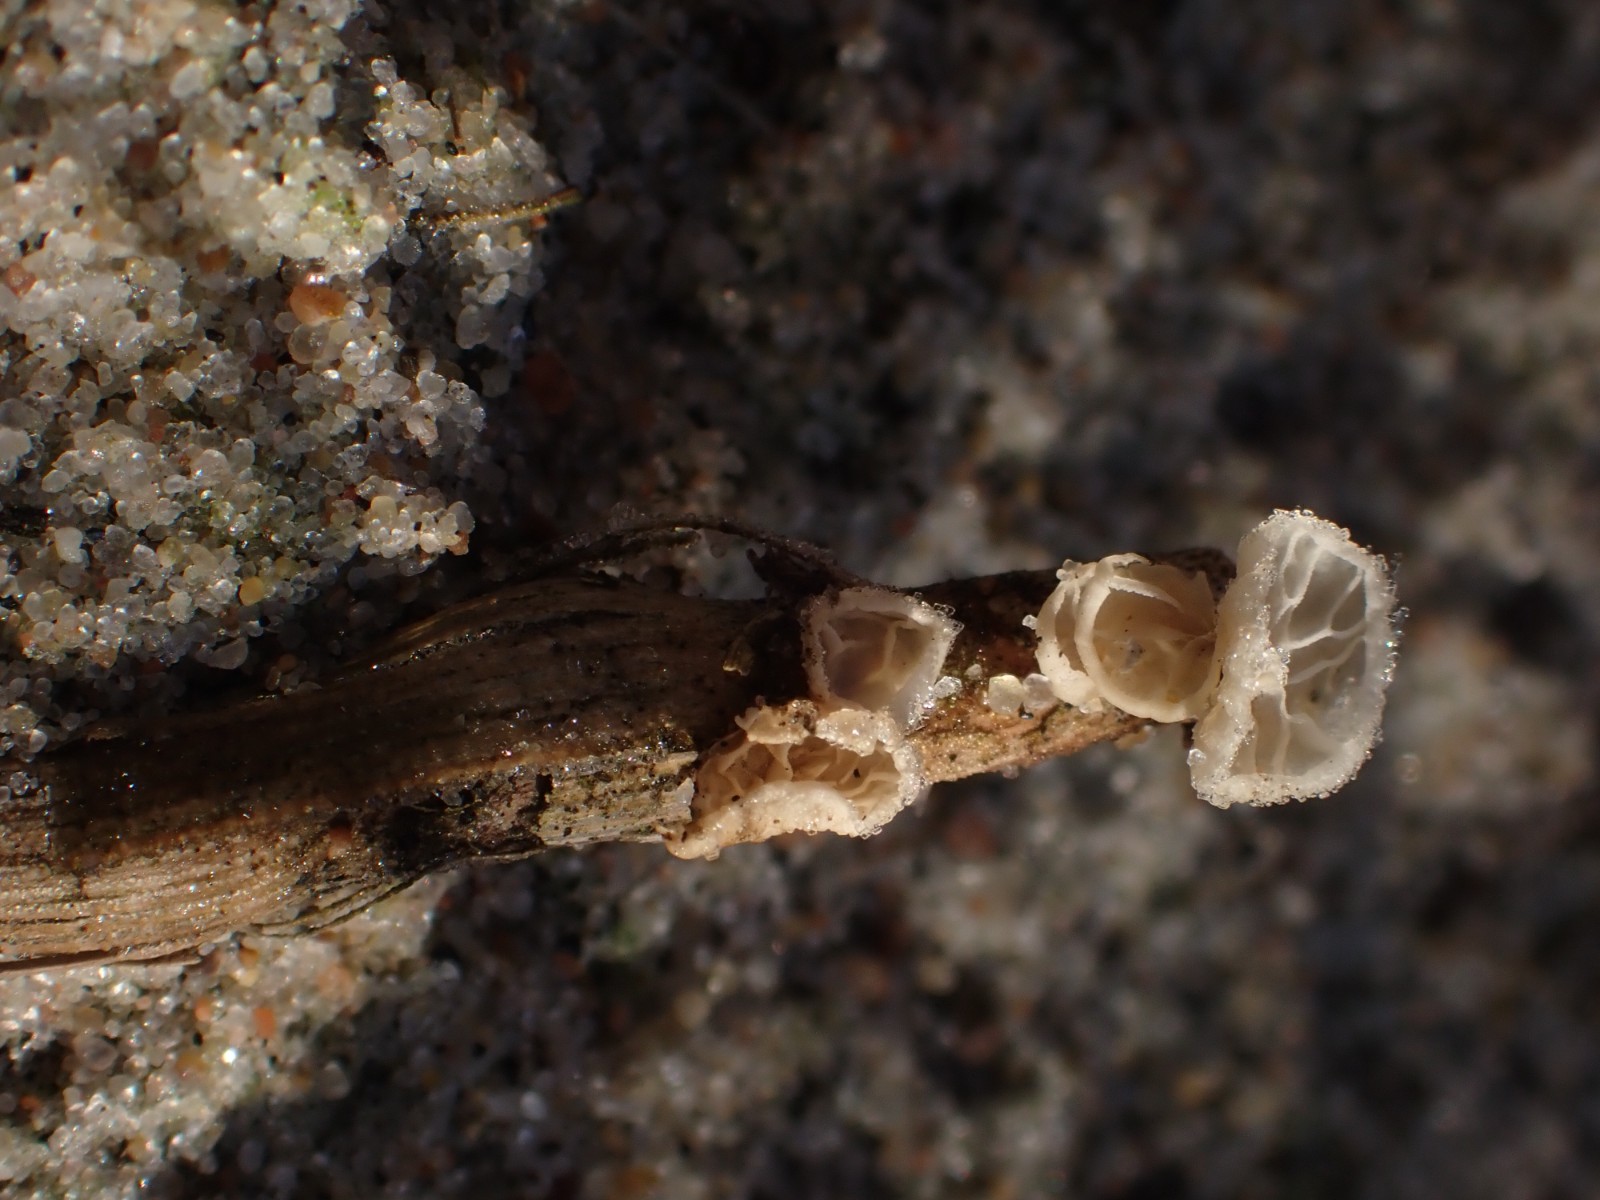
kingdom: Fungi
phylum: Basidiomycota
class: Agaricomycetes
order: Agaricales
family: Marasmiaceae
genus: Campanella
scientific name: Campanella caesia
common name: bruskøre
